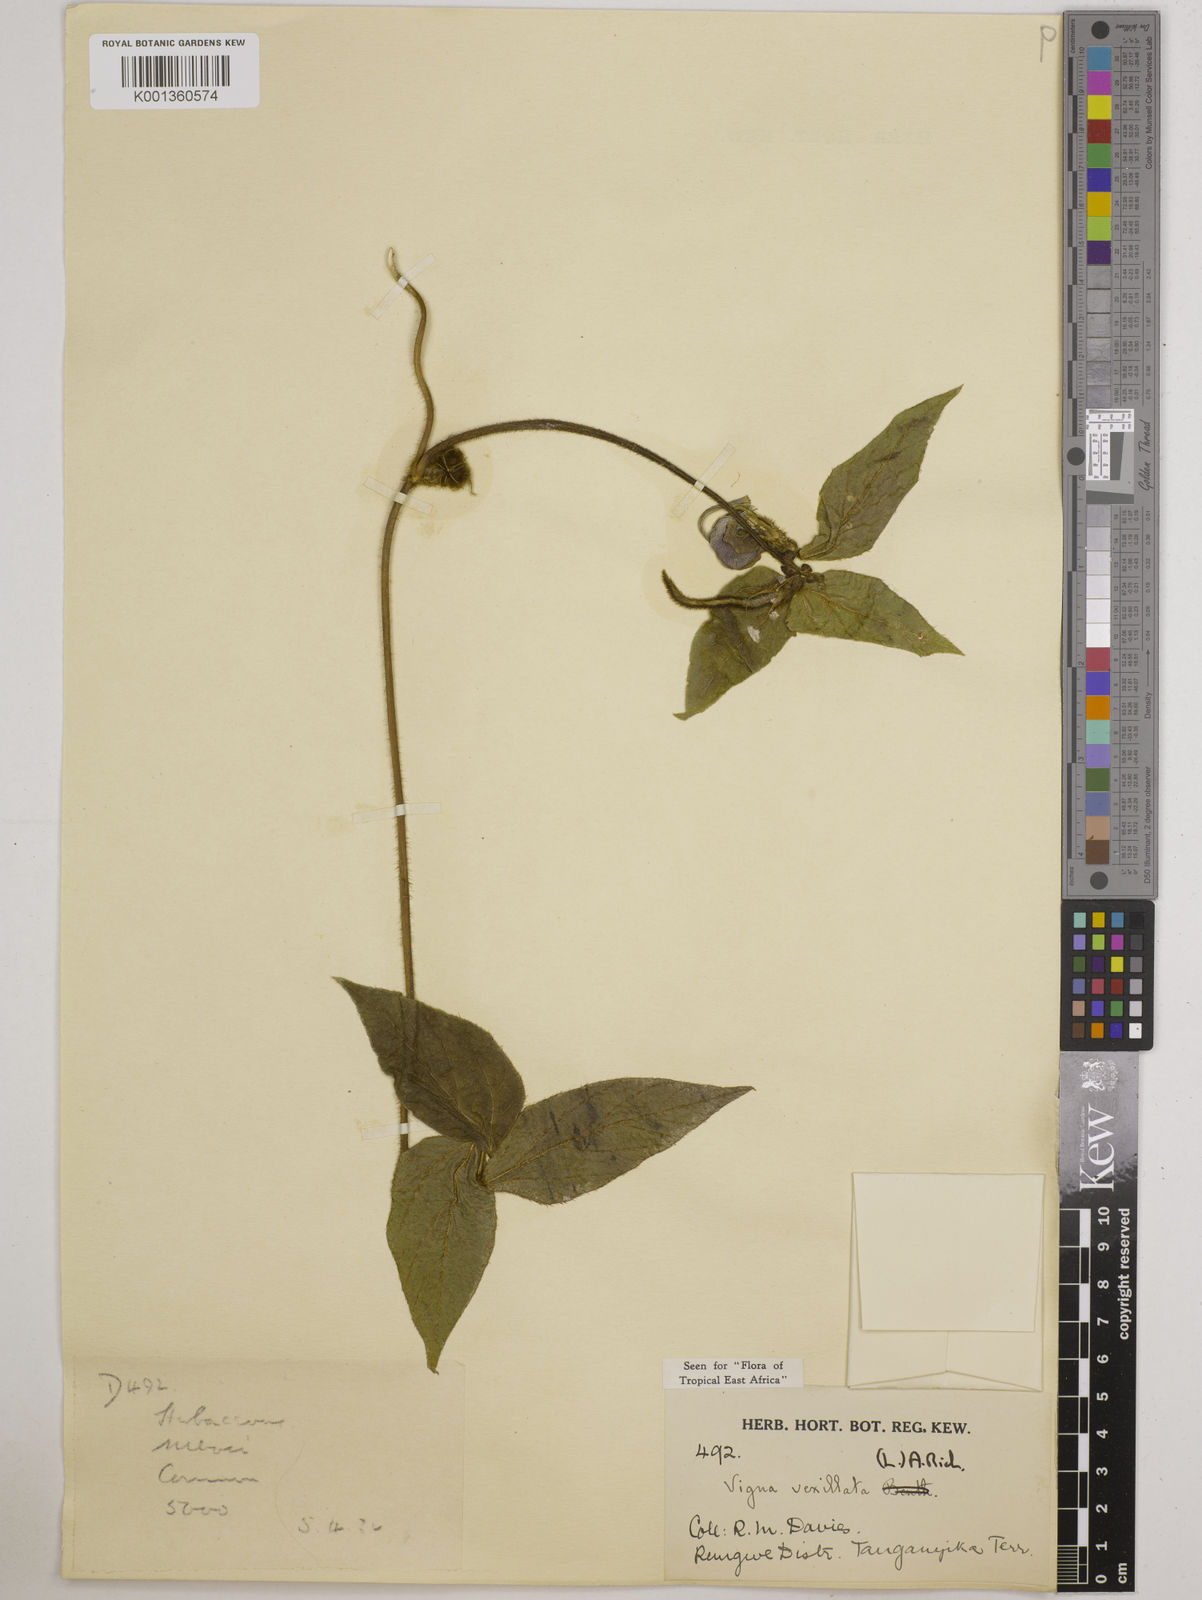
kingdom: Plantae
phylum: Tracheophyta
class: Magnoliopsida
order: Fabales
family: Fabaceae
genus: Vigna
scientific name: Vigna vexillata
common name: Zombi pea
